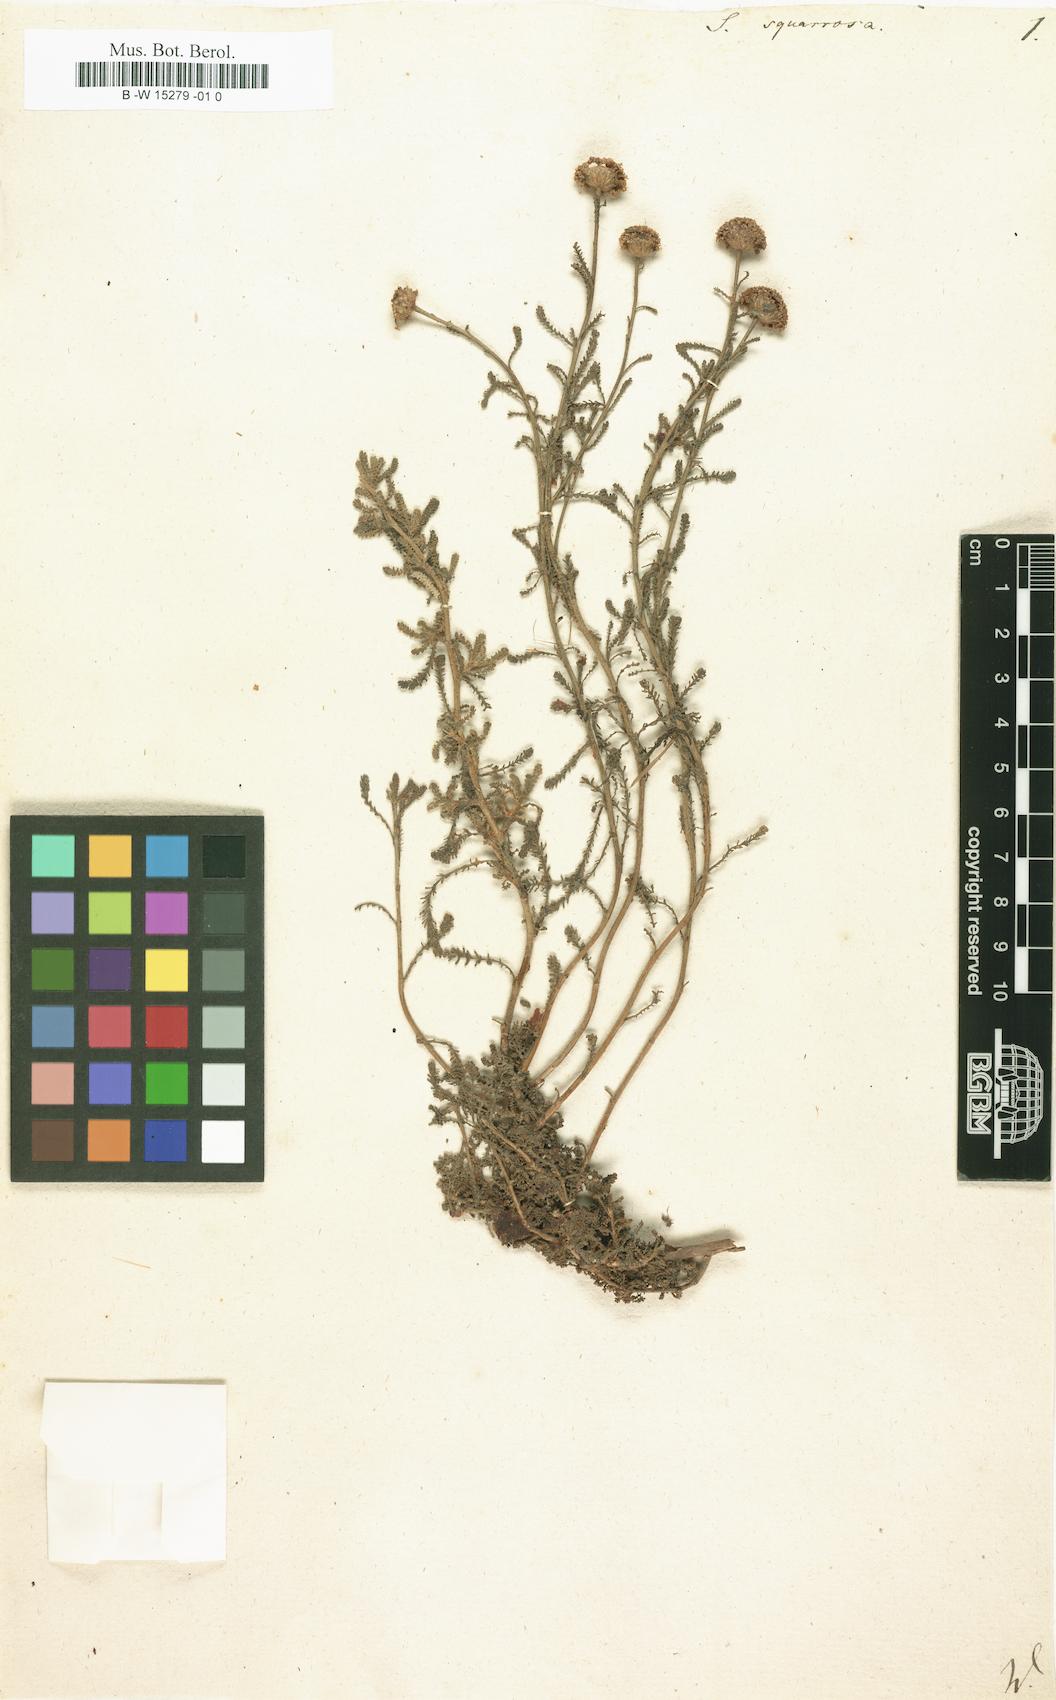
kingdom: Plantae
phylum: Tracheophyta
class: Magnoliopsida
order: Asterales
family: Asteraceae
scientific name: Asteraceae
